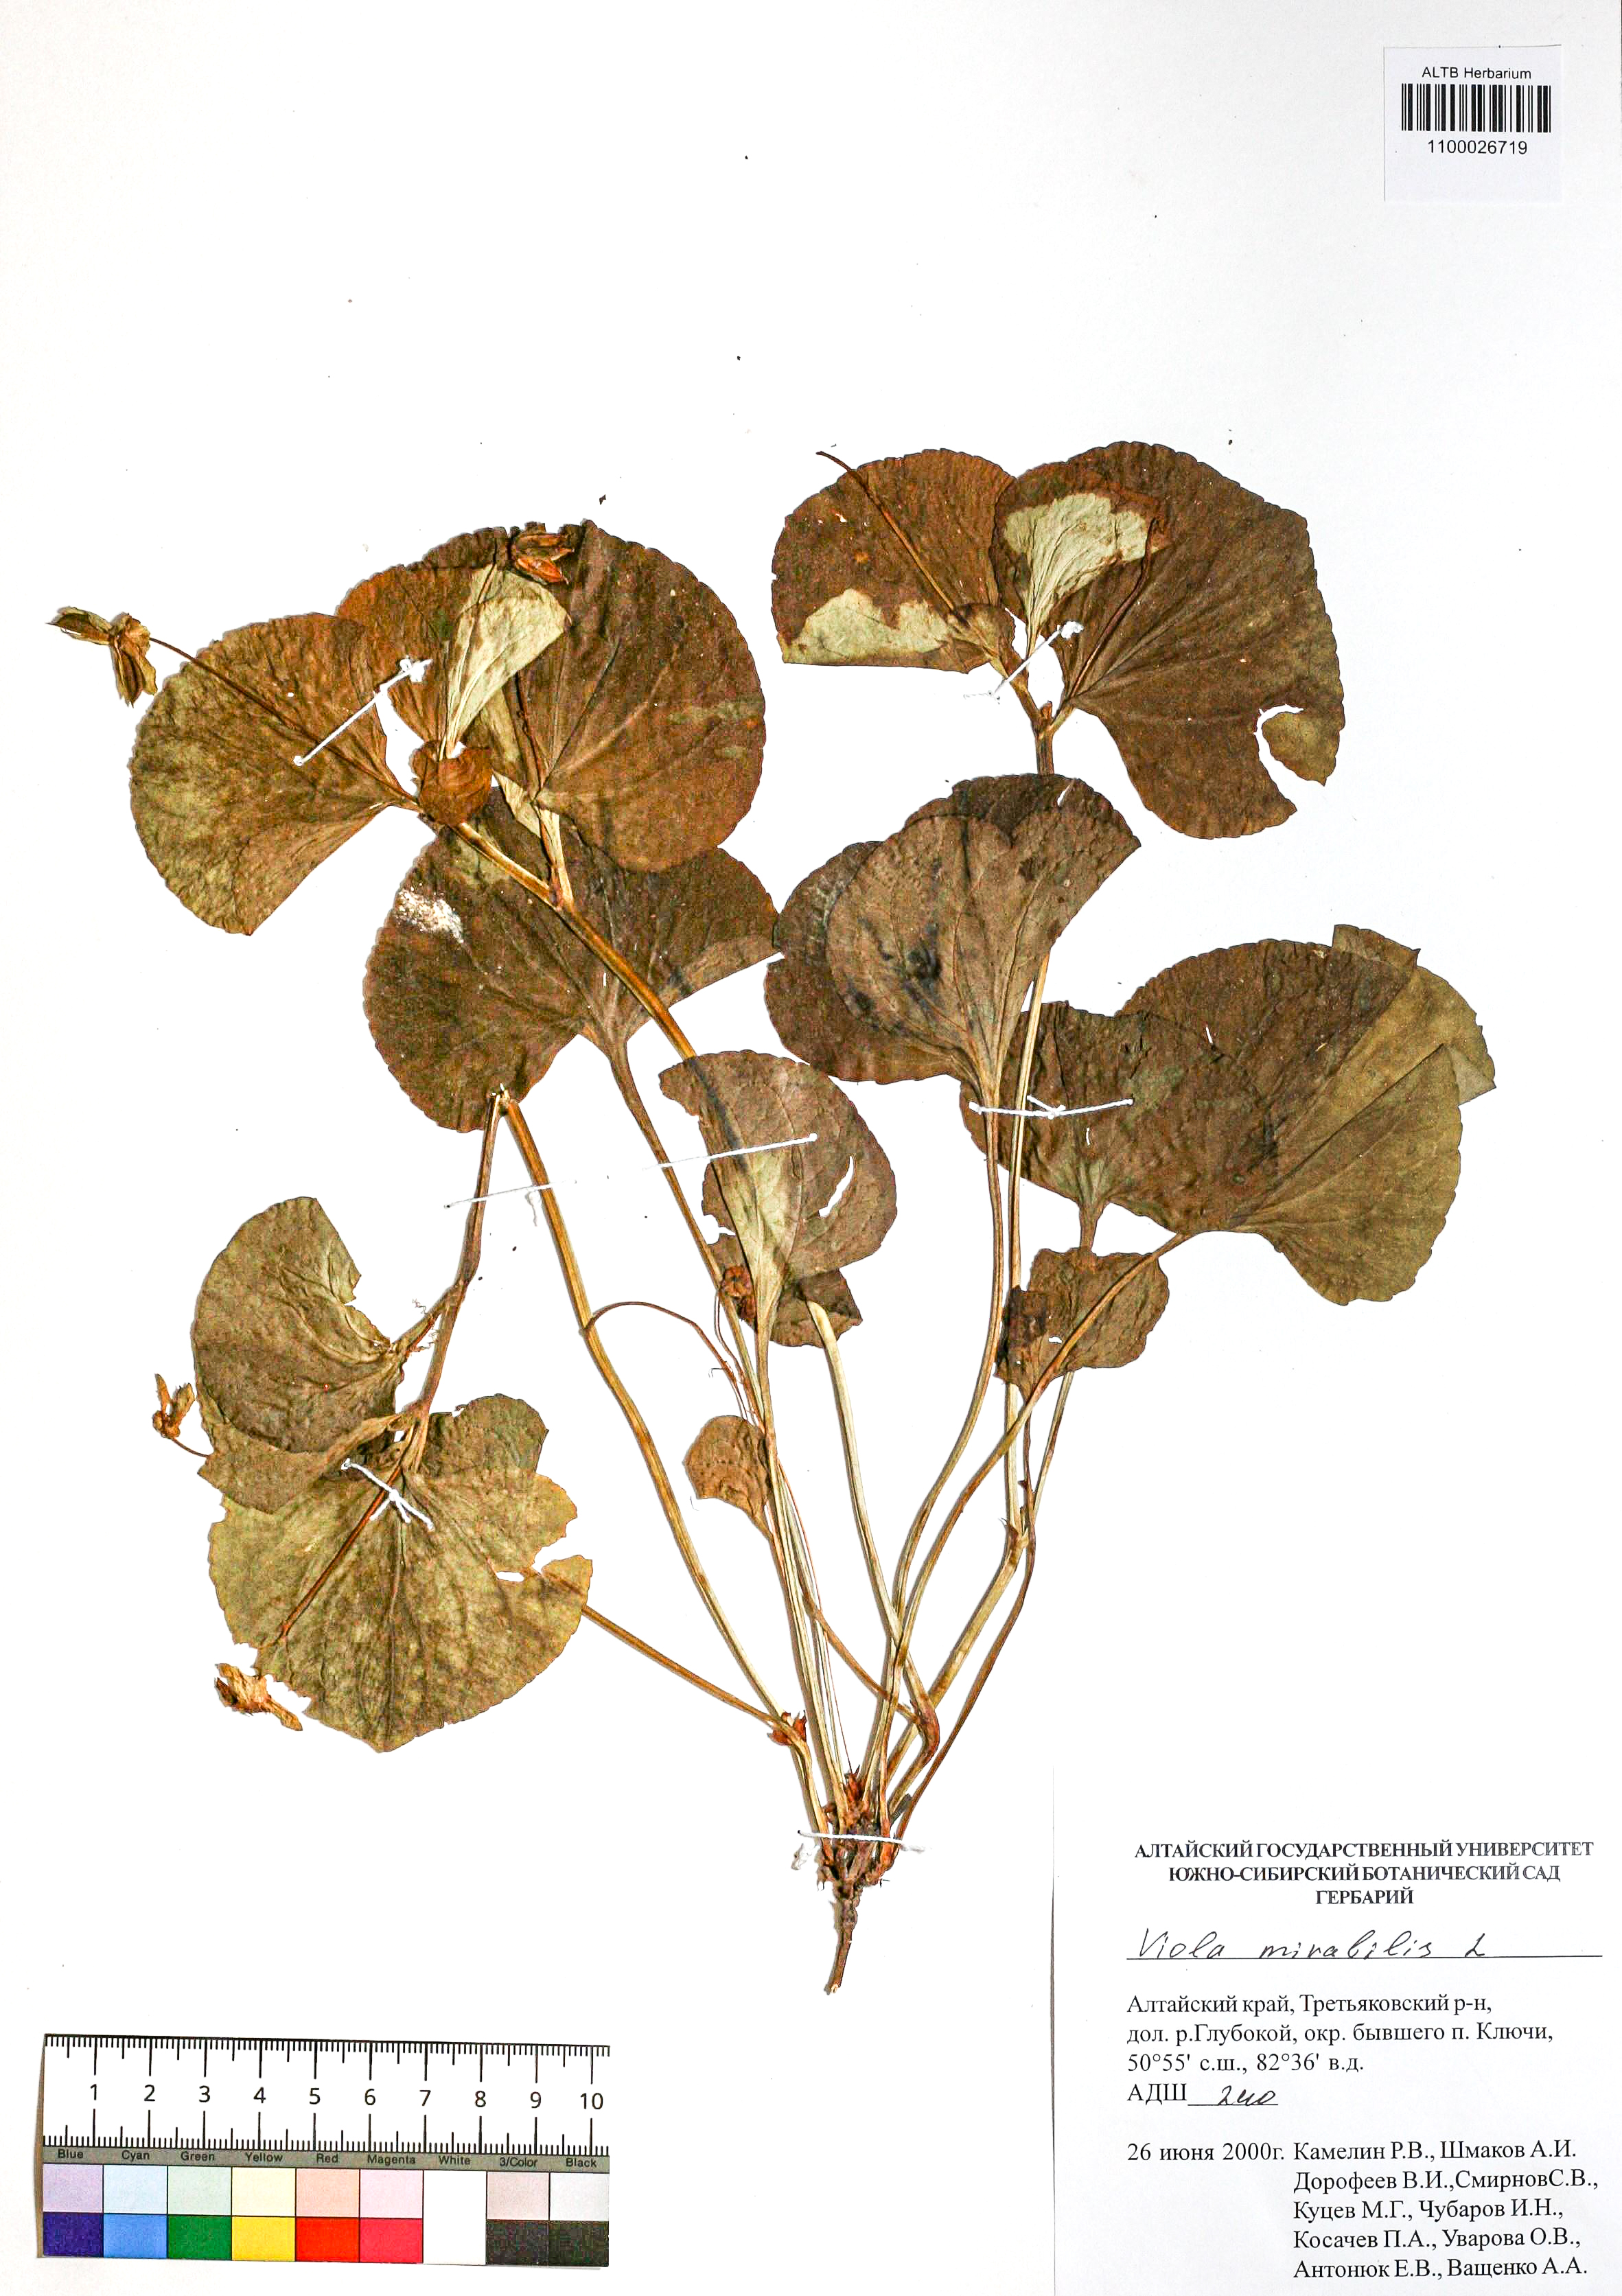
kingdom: Plantae
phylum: Tracheophyta
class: Magnoliopsida
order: Malpighiales
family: Violaceae
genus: Viola
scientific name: Viola mirabilis
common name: Wonder violet
